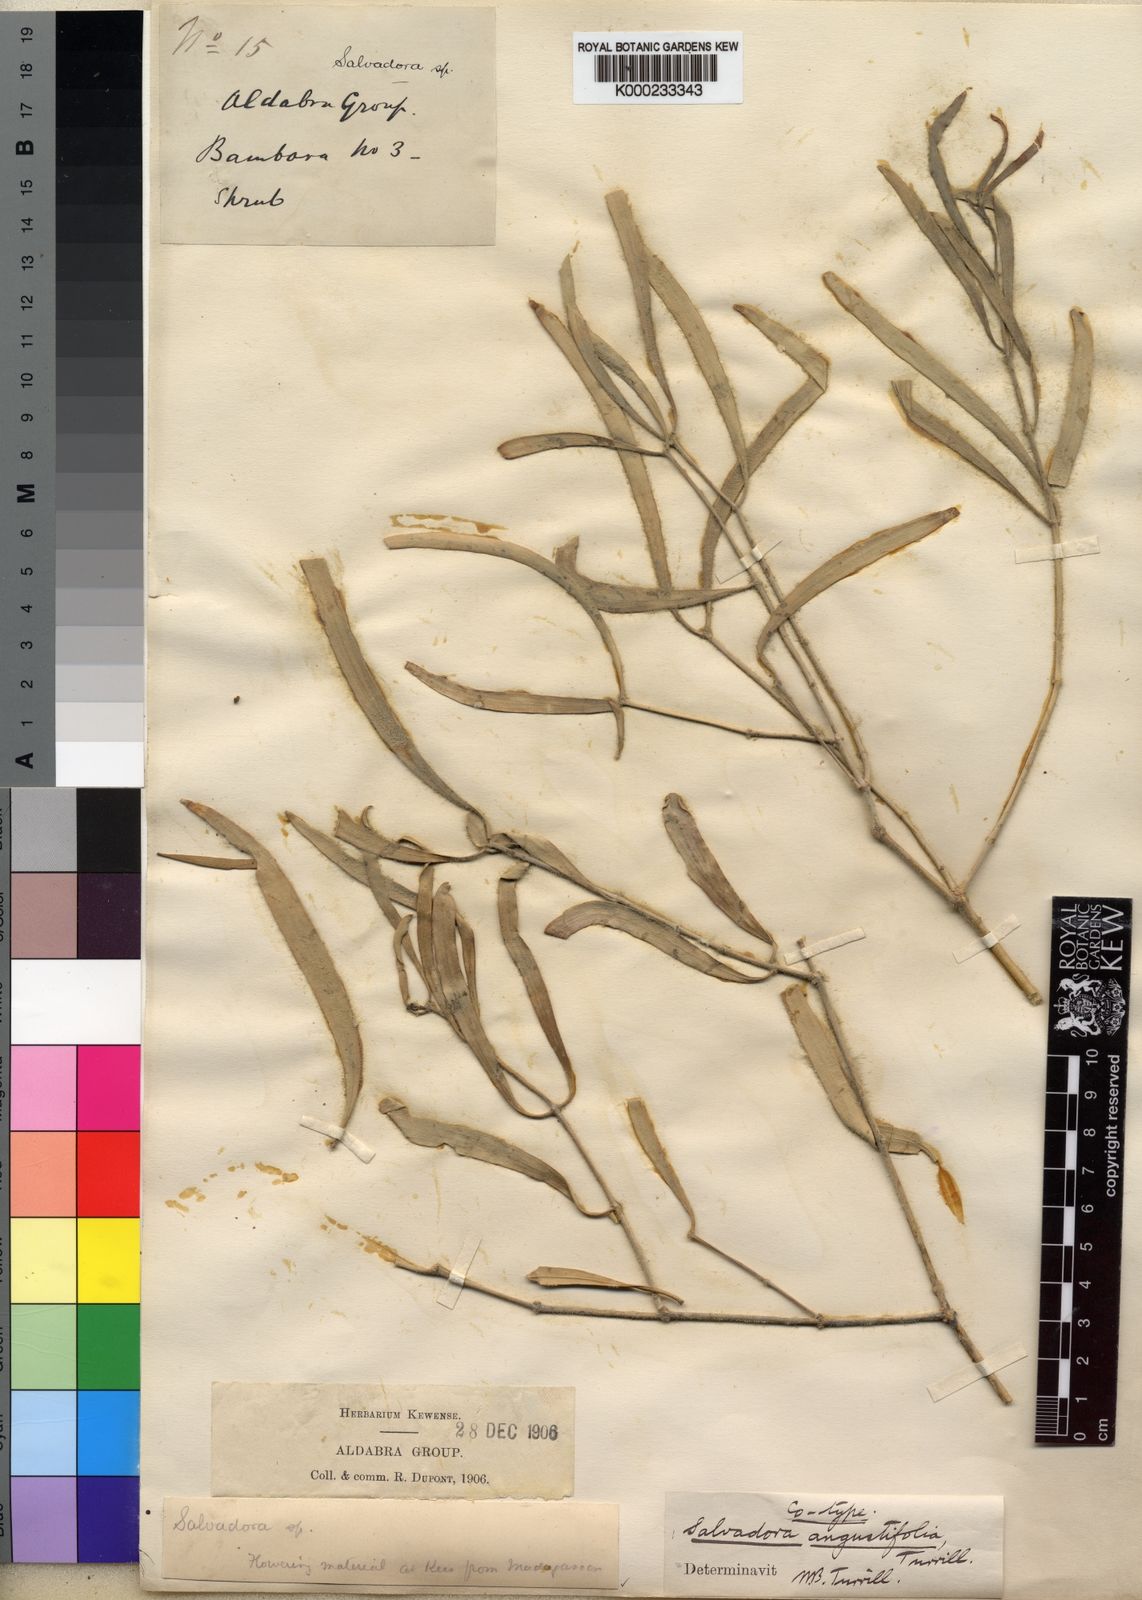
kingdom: Plantae
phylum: Tracheophyta
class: Magnoliopsida
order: Brassicales
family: Salvadoraceae
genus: Salvadora
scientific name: Salvadora angustifolia
